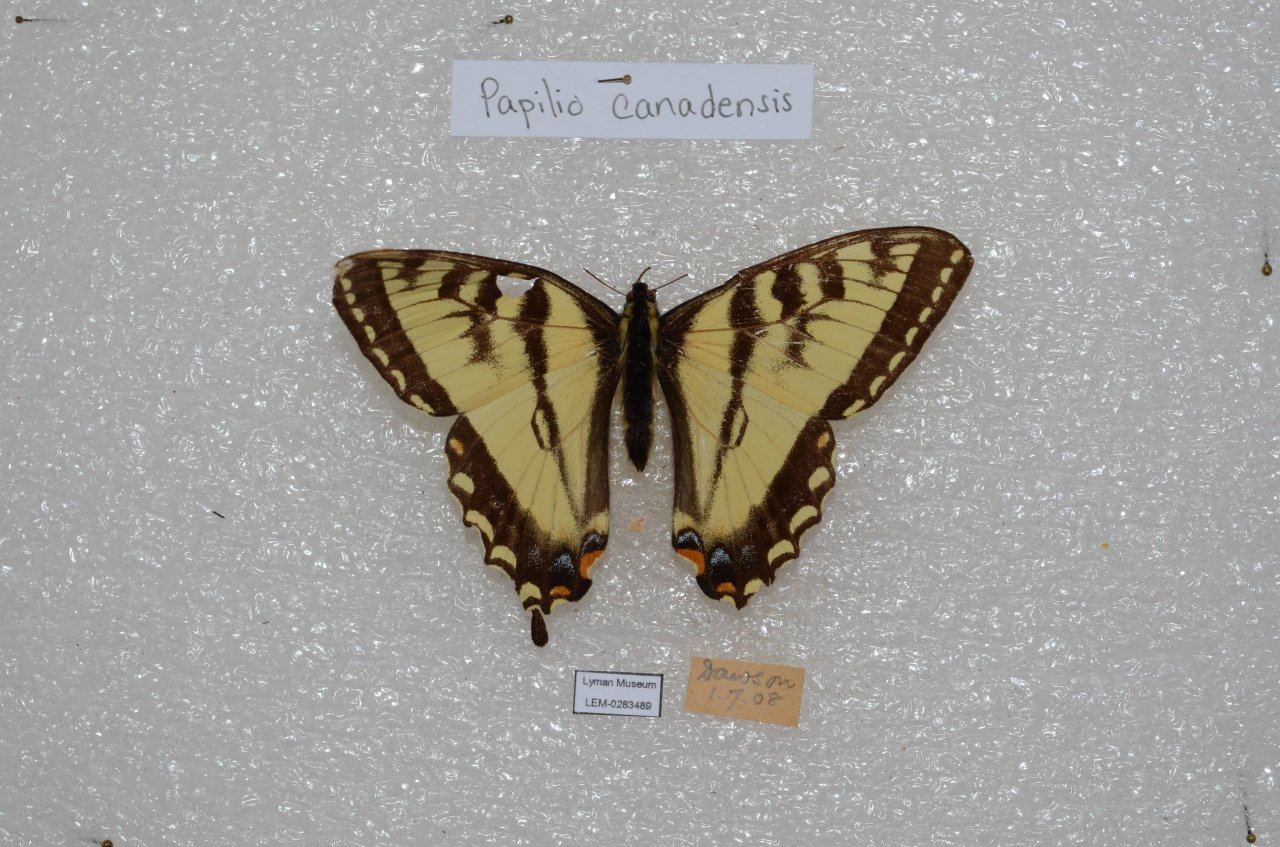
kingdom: Animalia
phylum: Arthropoda
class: Insecta
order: Lepidoptera
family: Papilionidae
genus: Pterourus
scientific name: Pterourus canadensis
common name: Canadian Tiger Swallowtail
